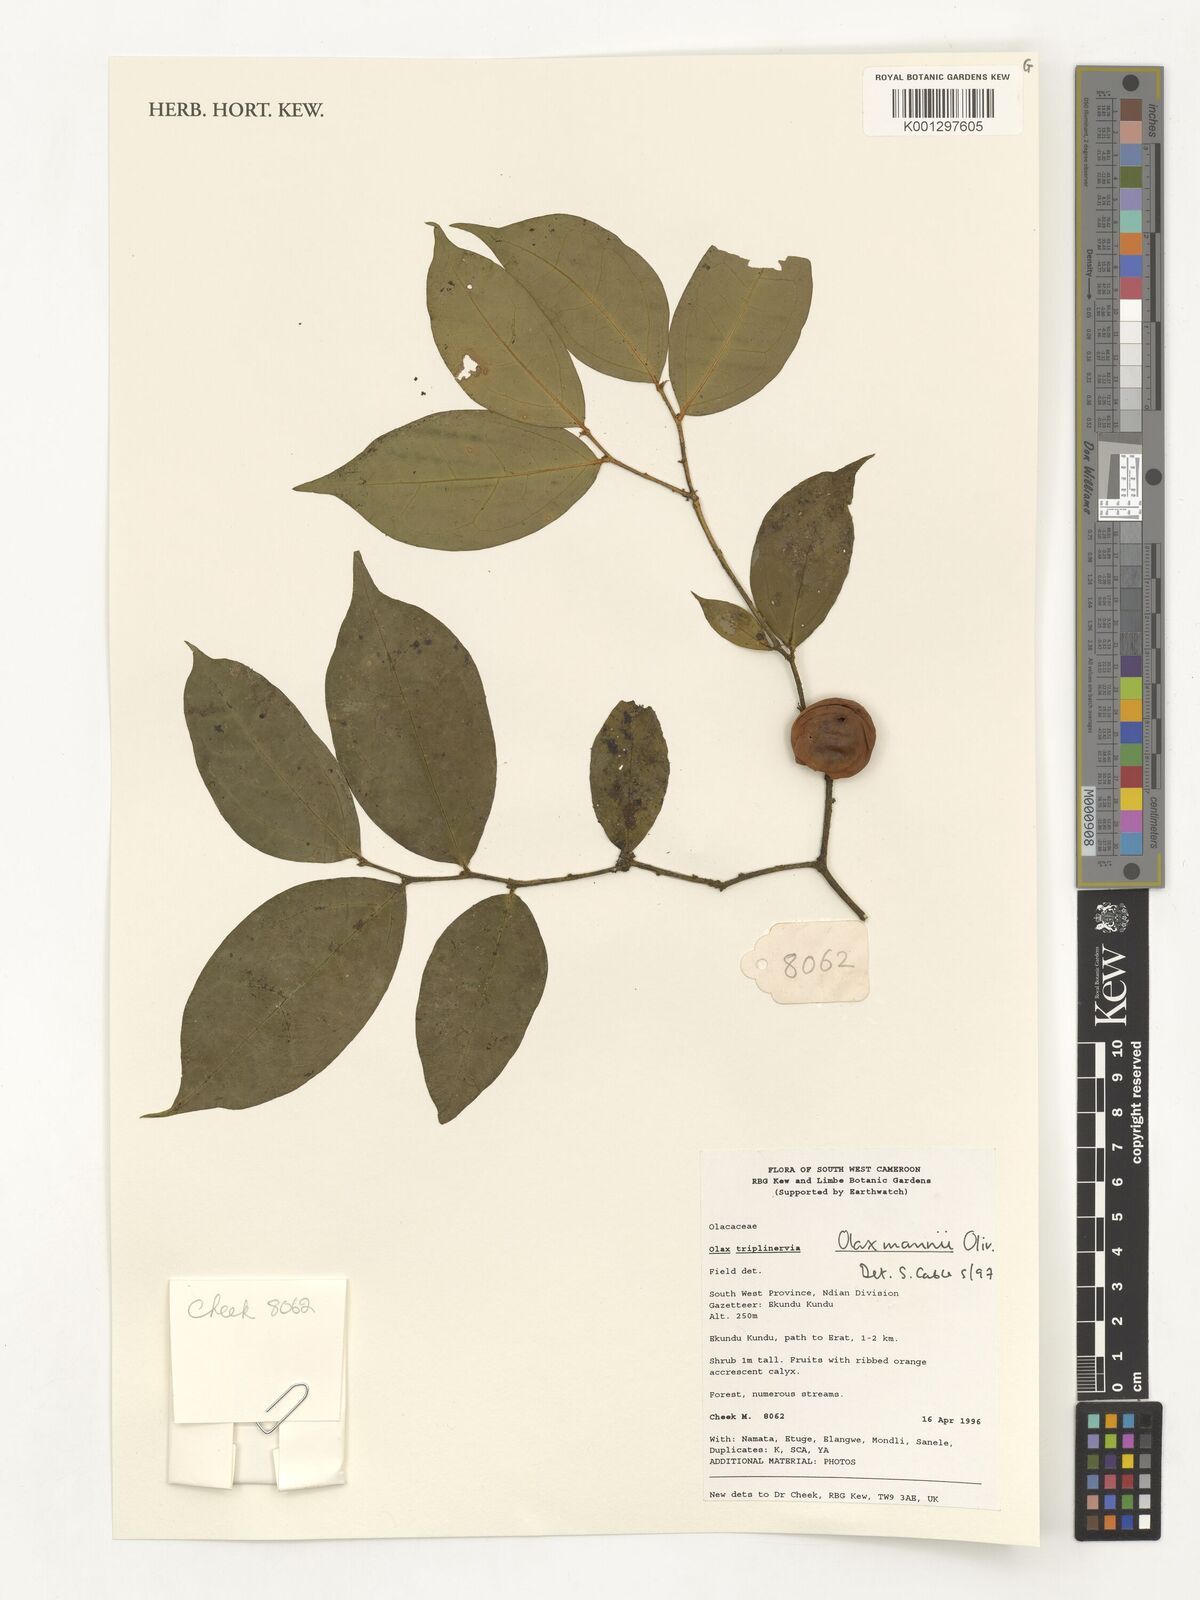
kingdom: Plantae
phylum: Tracheophyta
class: Magnoliopsida
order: Santalales
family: Olacaceae
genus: Olax
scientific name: Olax mannii
